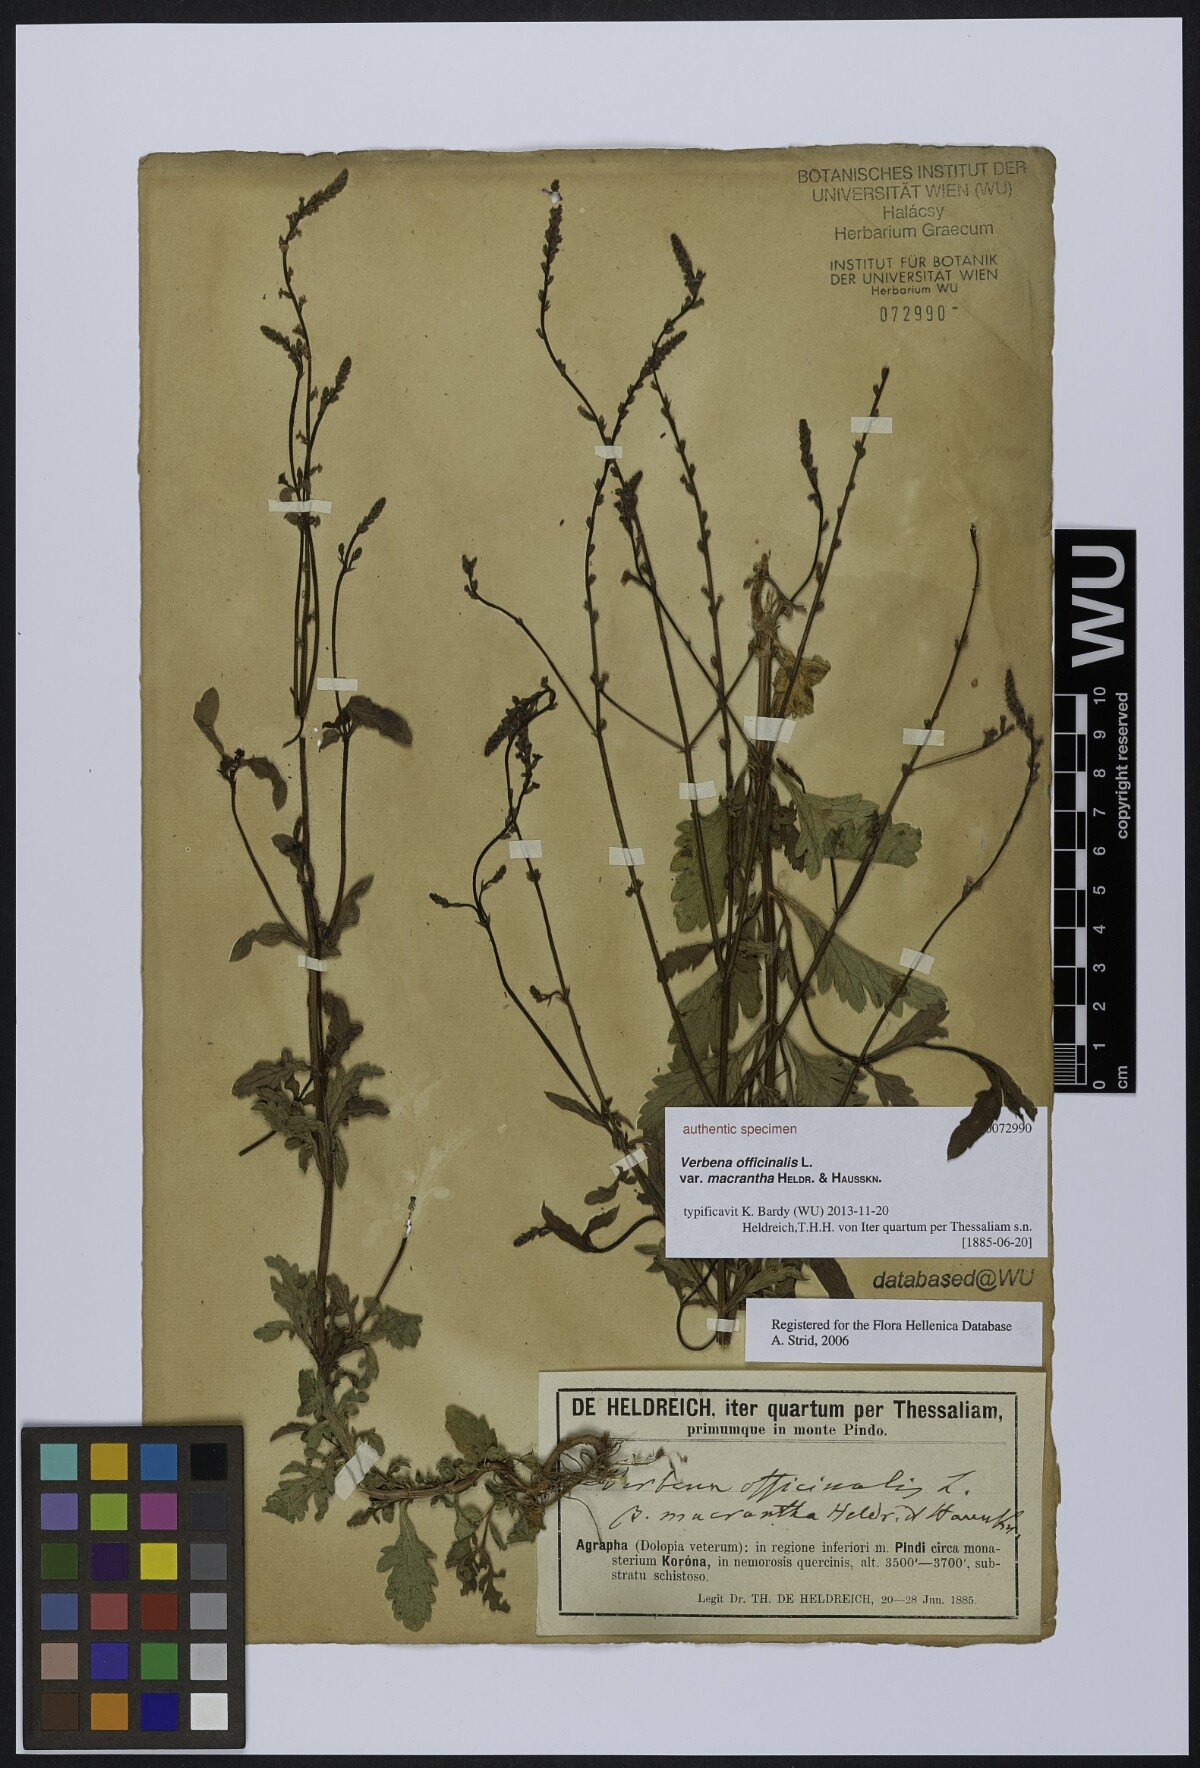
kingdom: Plantae
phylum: Tracheophyta
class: Magnoliopsida
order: Lamiales
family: Verbenaceae
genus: Verbena
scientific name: Verbena officinalis
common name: Vervain
